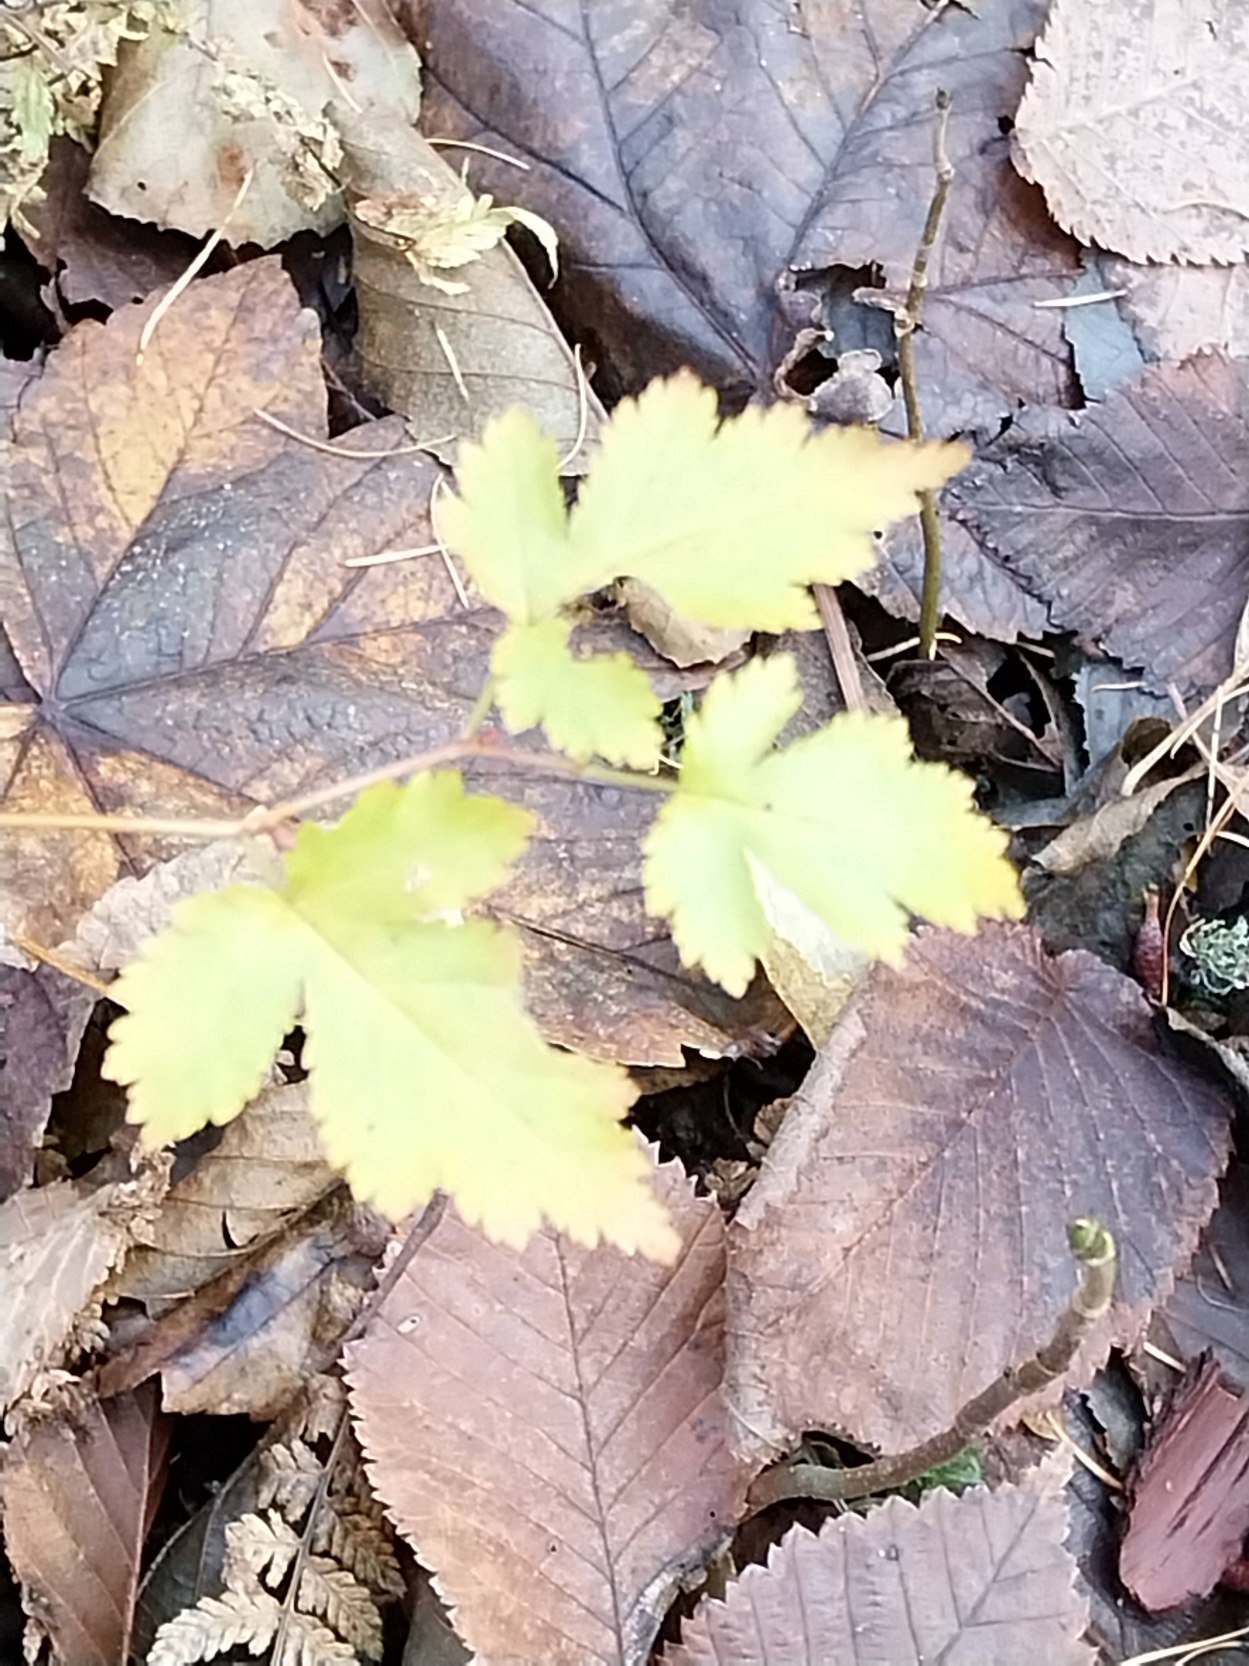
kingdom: Plantae
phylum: Tracheophyta
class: Magnoliopsida
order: Rosales
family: Rosaceae
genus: Neillia
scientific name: Neillia incisa
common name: Fliget kranstop
